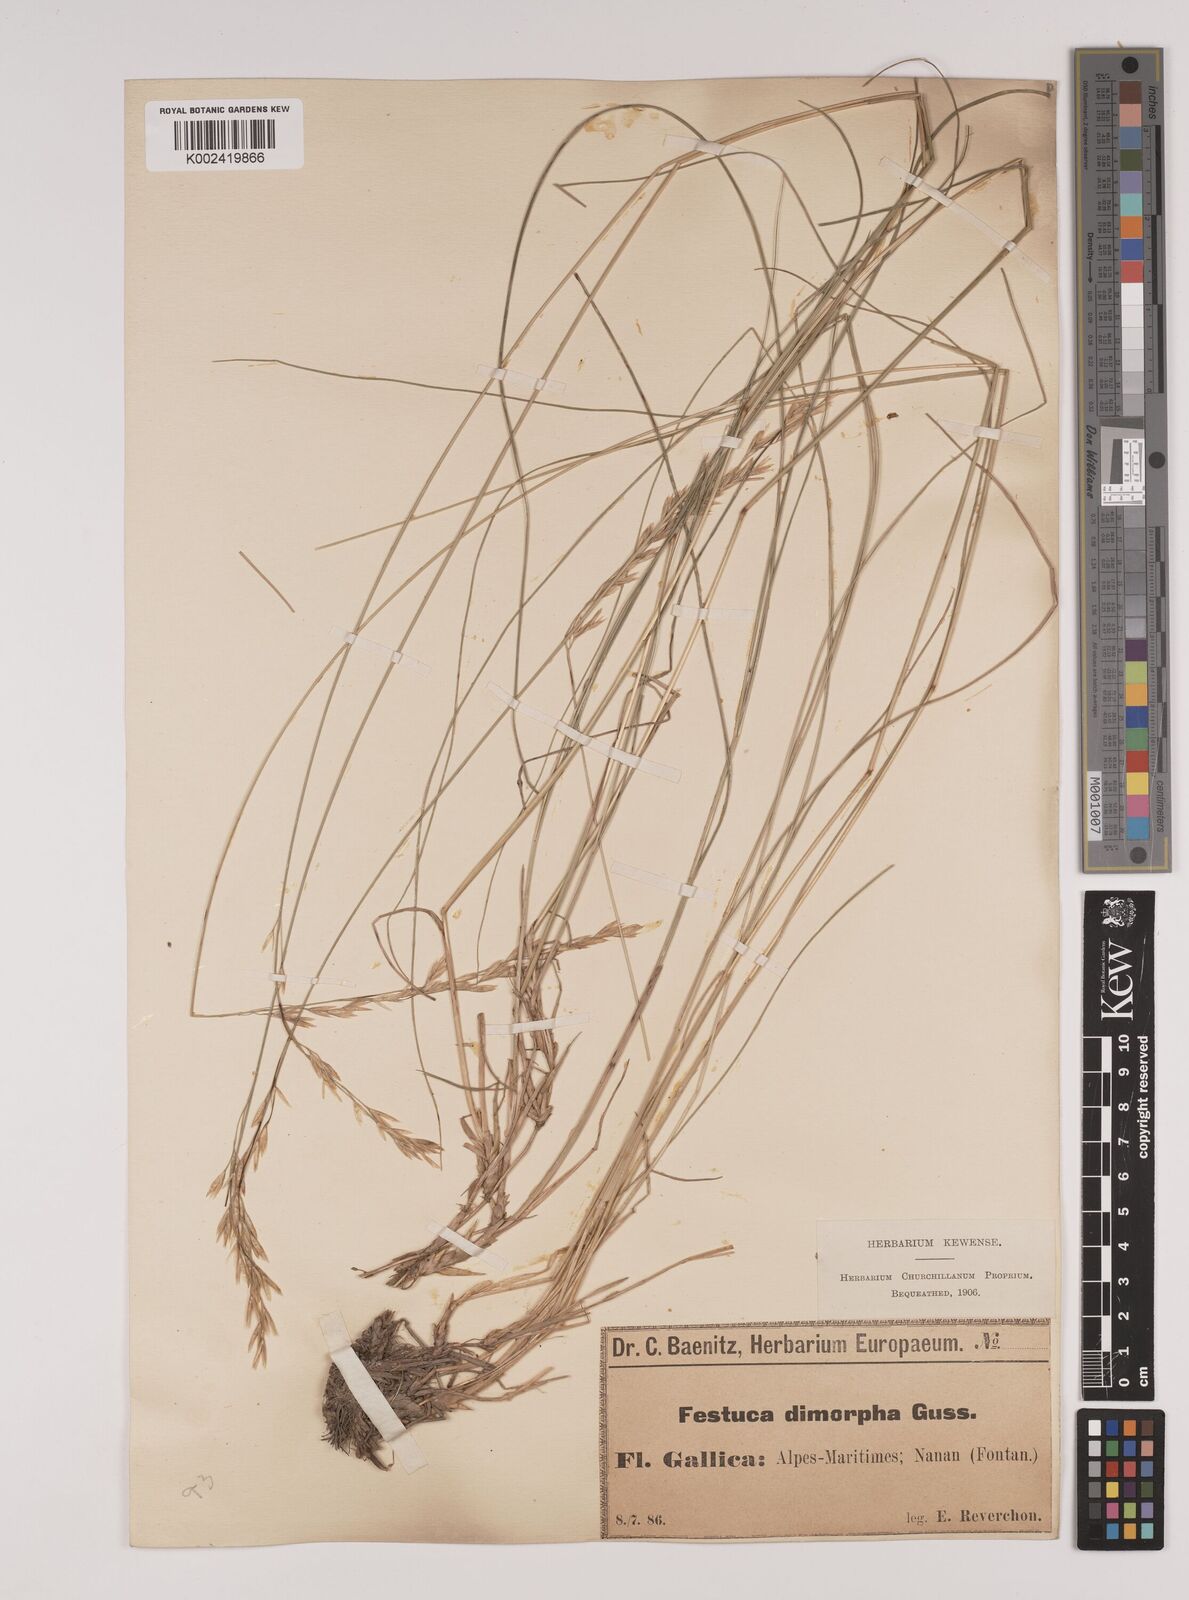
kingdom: Plantae
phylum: Tracheophyta
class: Liliopsida
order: Poales
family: Poaceae
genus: Festuca
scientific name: Festuca dimorpha
